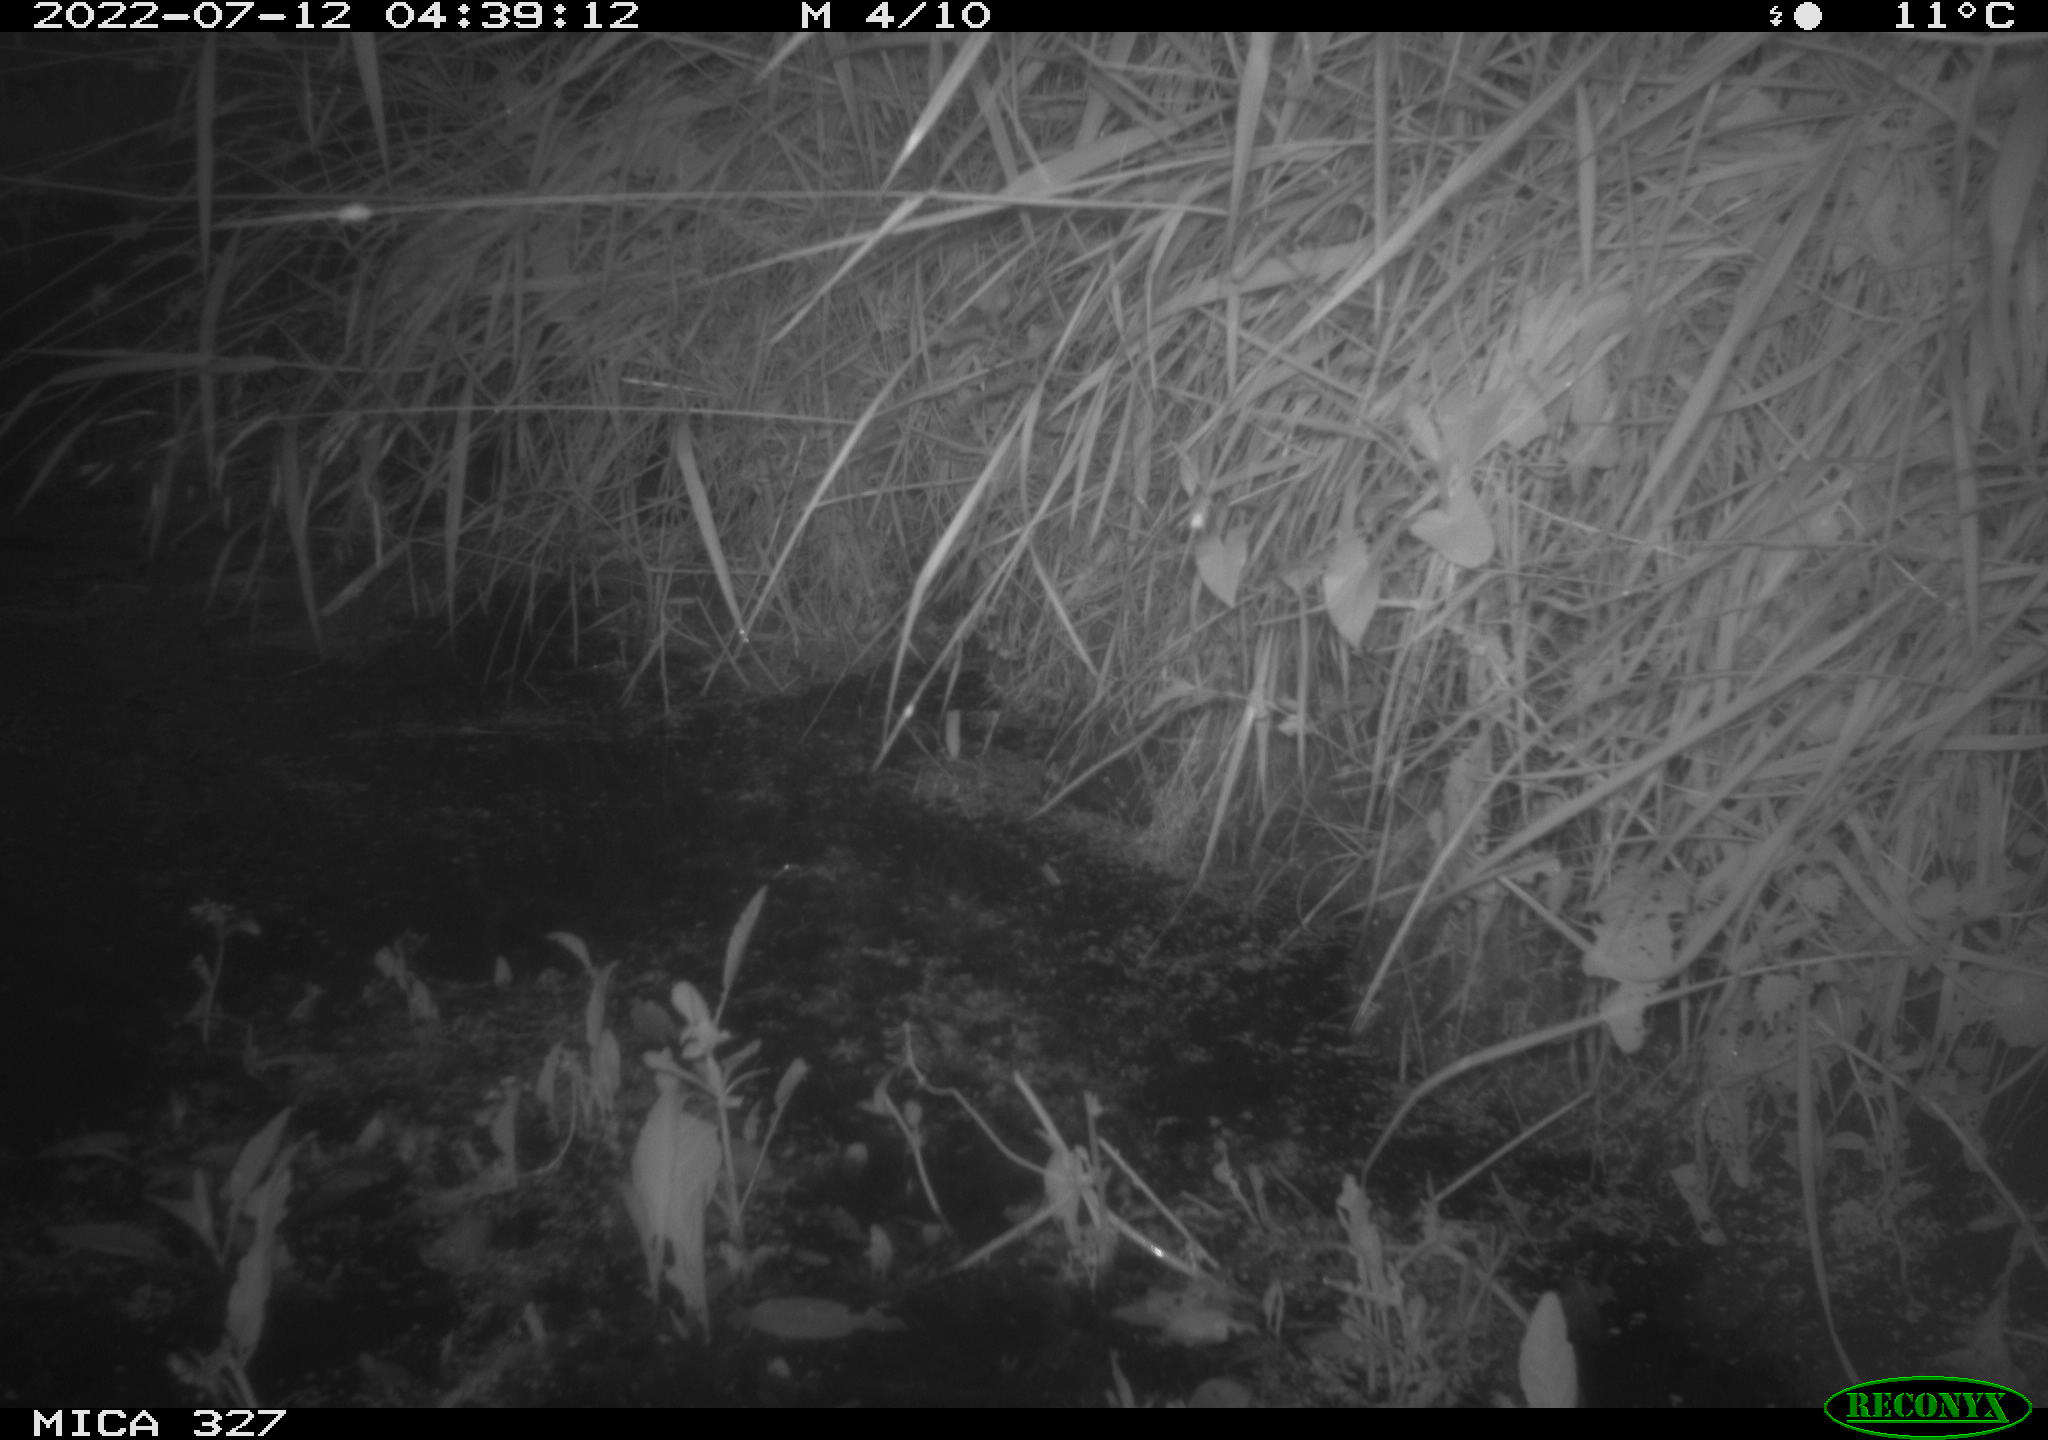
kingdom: Animalia
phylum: Chordata
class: Mammalia
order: Rodentia
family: Cricetidae
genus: Ondatra
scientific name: Ondatra zibethicus
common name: Muskrat
